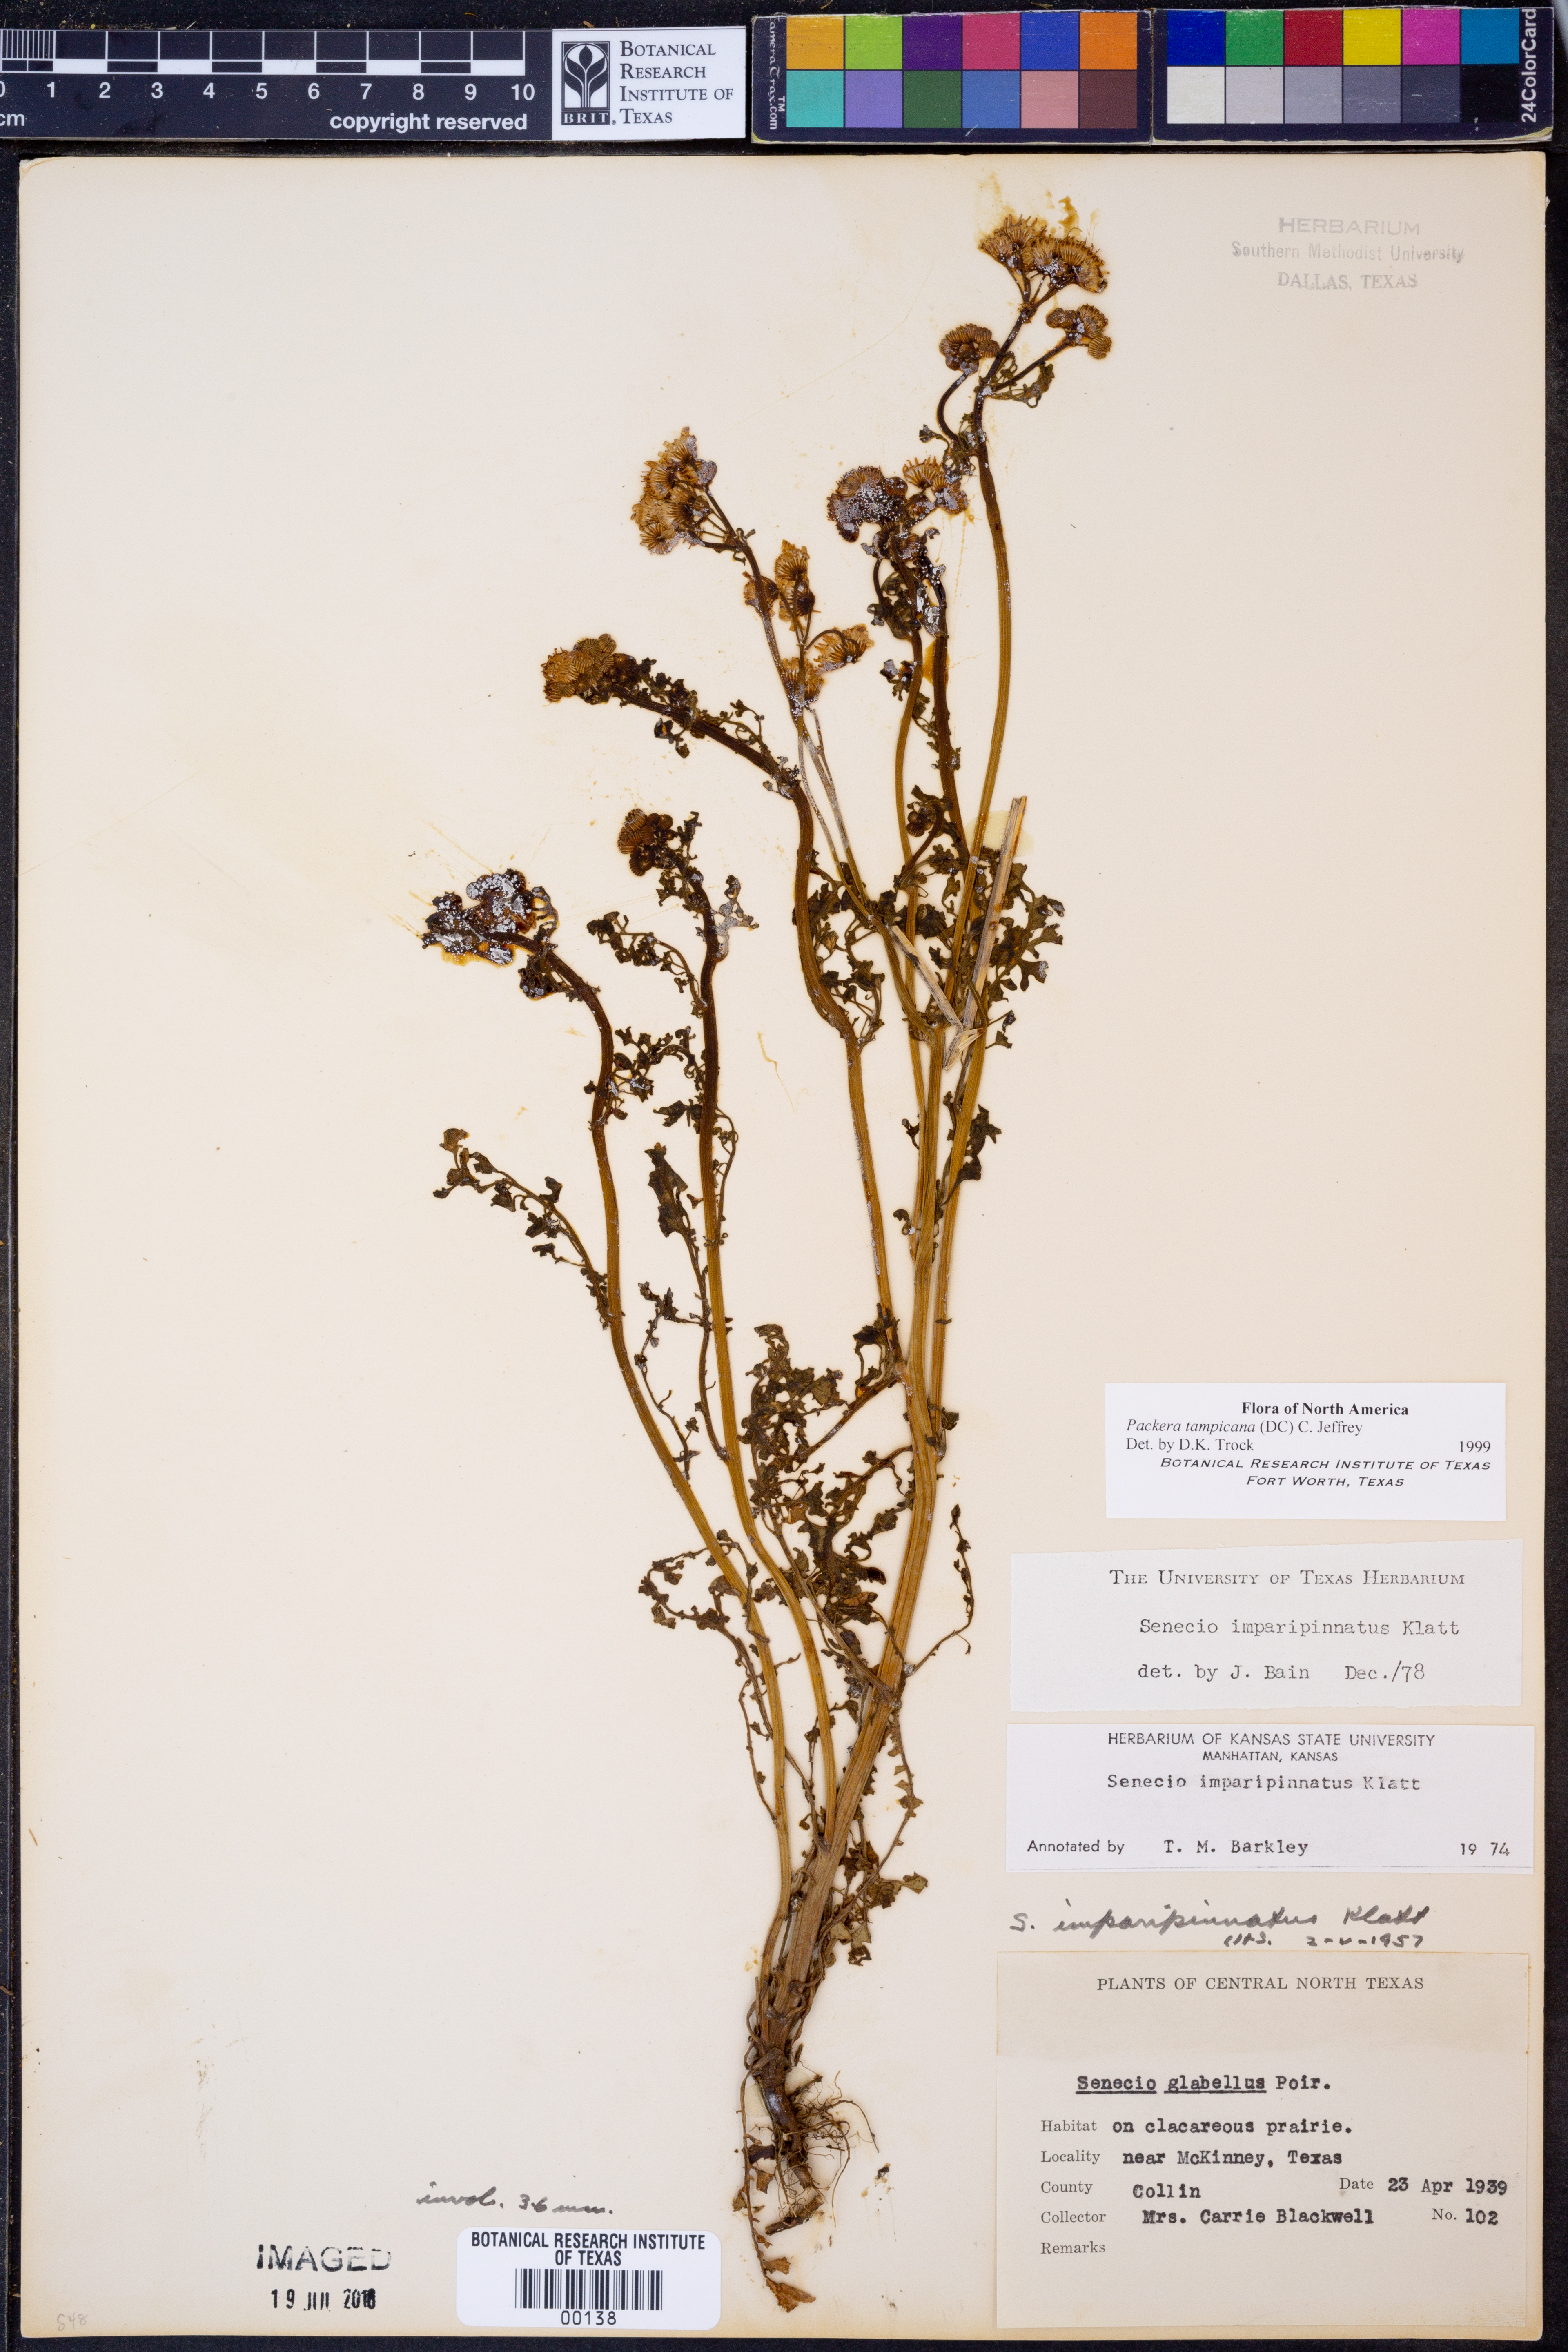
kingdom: Plantae
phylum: Tracheophyta
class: Magnoliopsida
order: Asterales
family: Asteraceae
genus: Packera
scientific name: Packera tampicana
